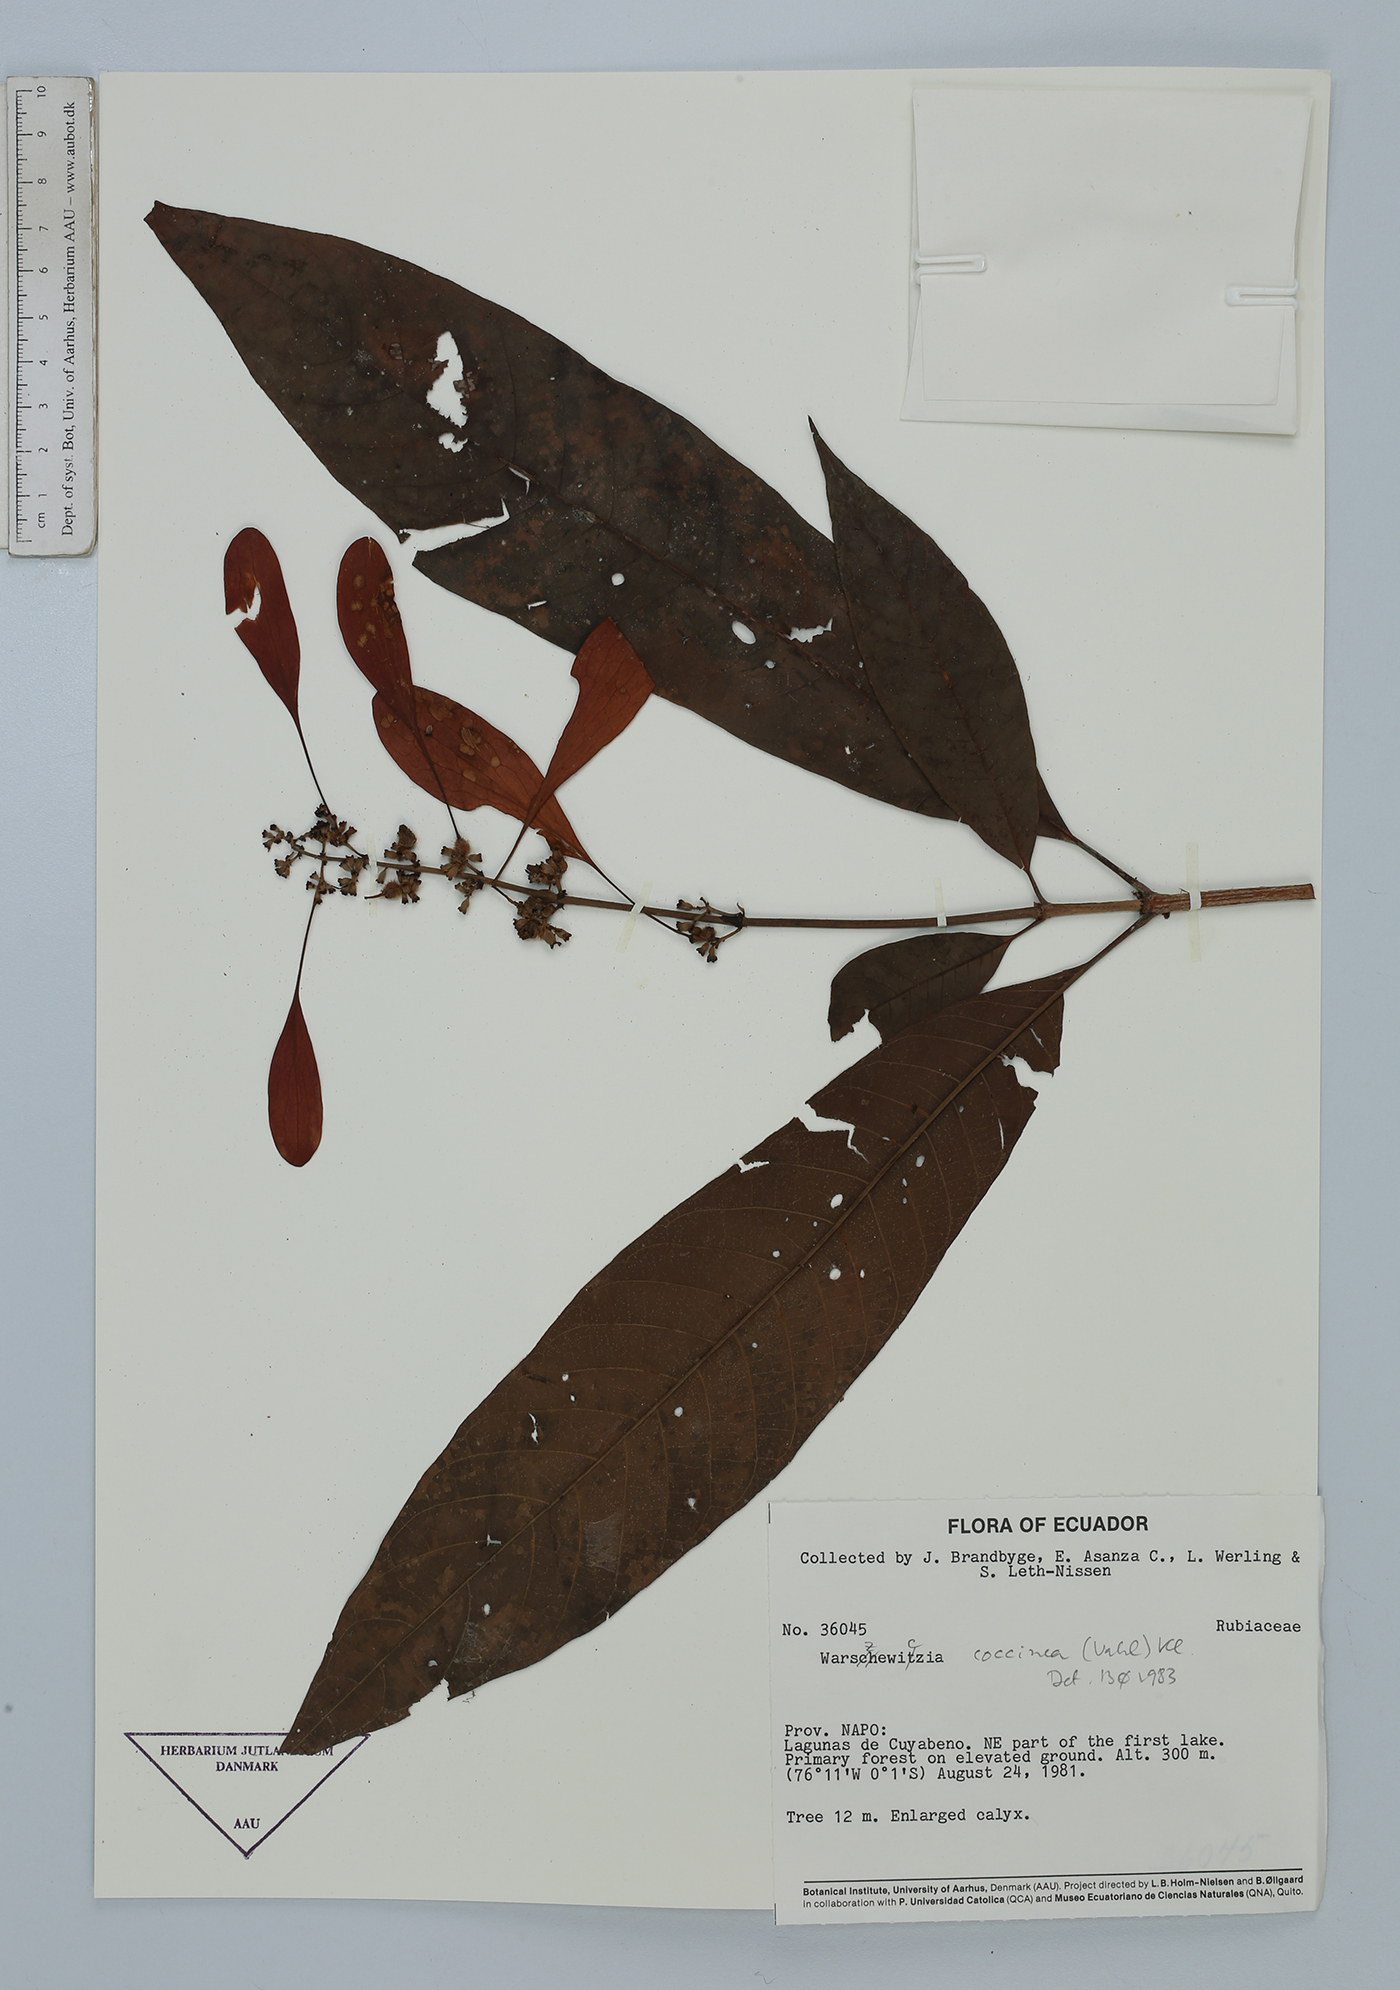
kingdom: Plantae
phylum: Tracheophyta
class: Magnoliopsida
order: Gentianales
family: Rubiaceae
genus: Warszewiczia
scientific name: Warszewiczia coccinea
